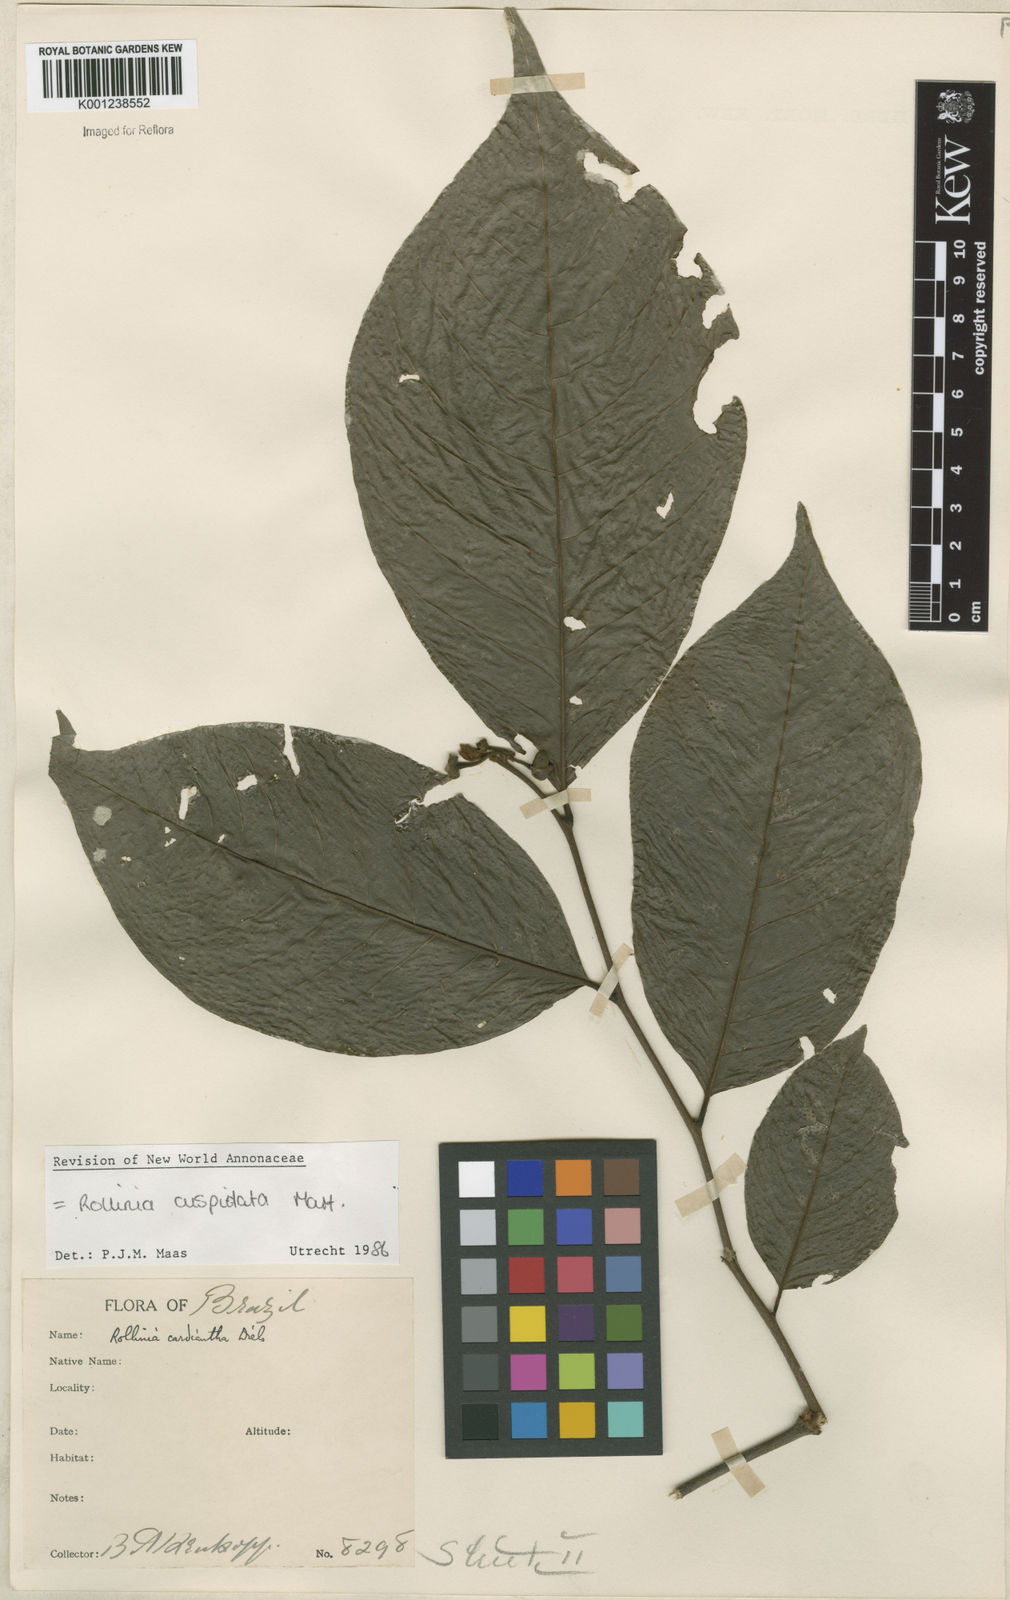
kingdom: Plantae
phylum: Tracheophyta
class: Magnoliopsida
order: Magnoliales
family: Annonaceae
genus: Annona
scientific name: Annona cuspidata
